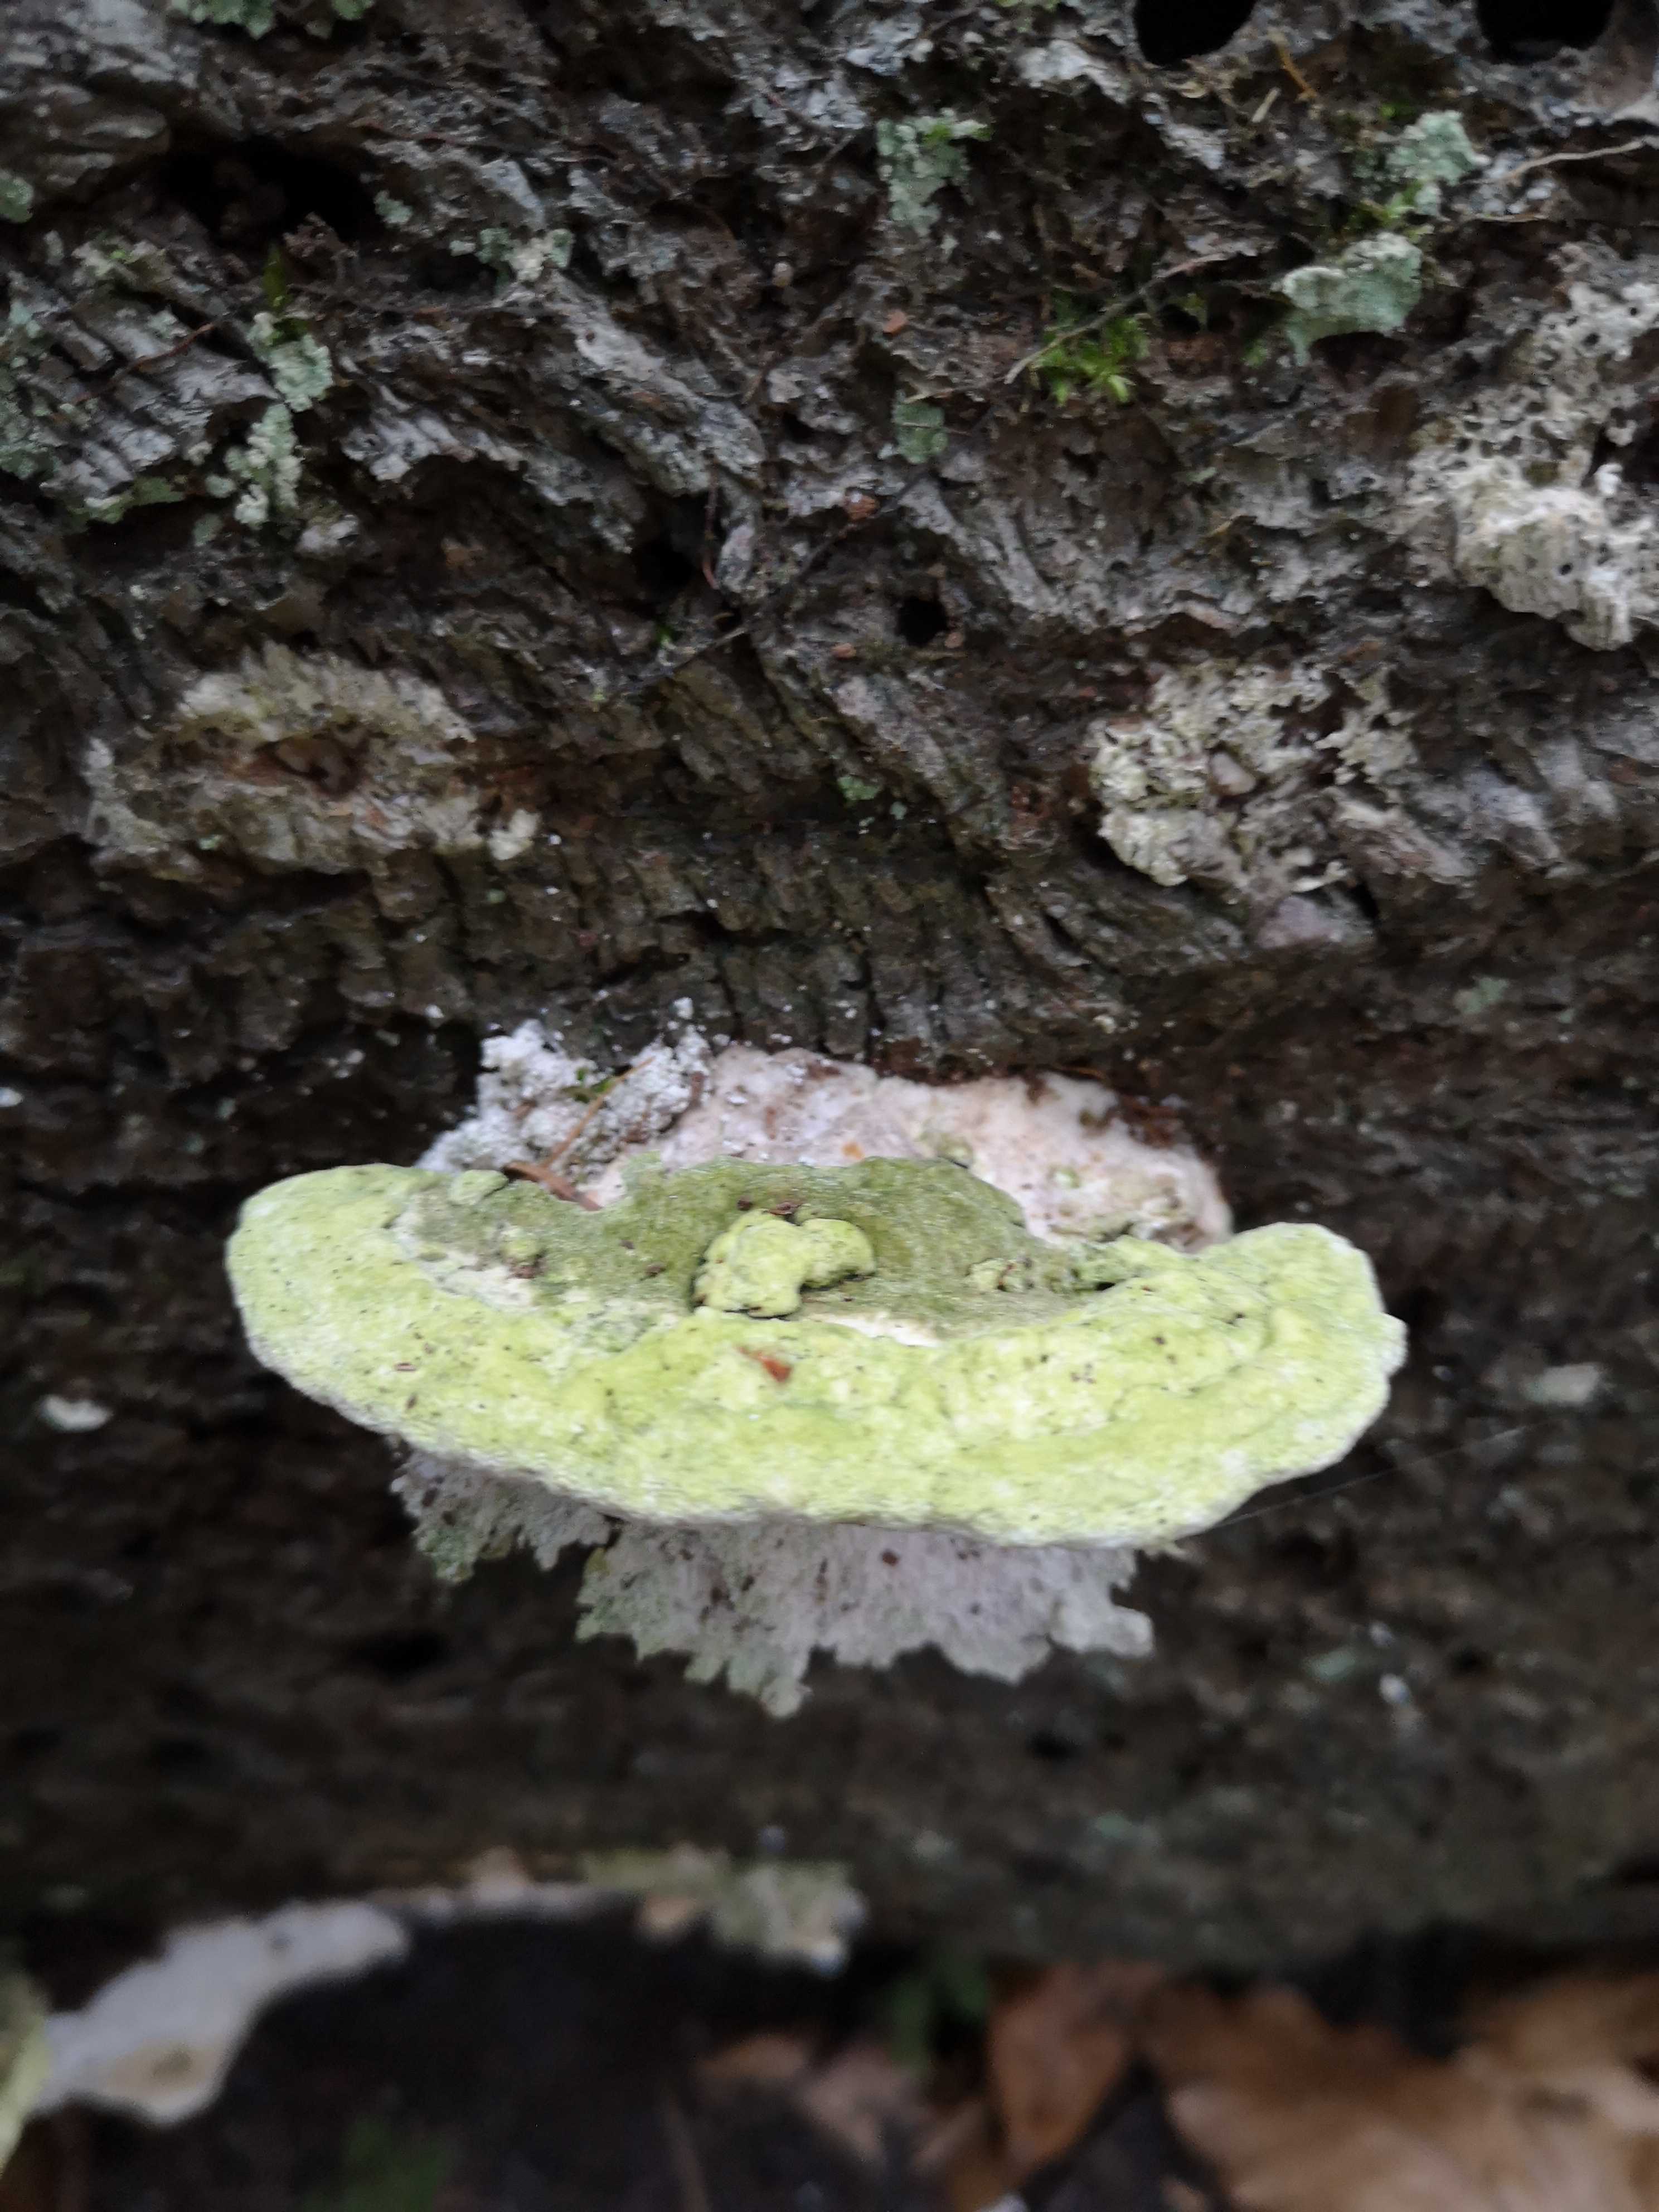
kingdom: Fungi
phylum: Basidiomycota
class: Agaricomycetes
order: Polyporales
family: Polyporaceae
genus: Trametes
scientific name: Trametes gibbosa
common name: puklet læderporesvamp
